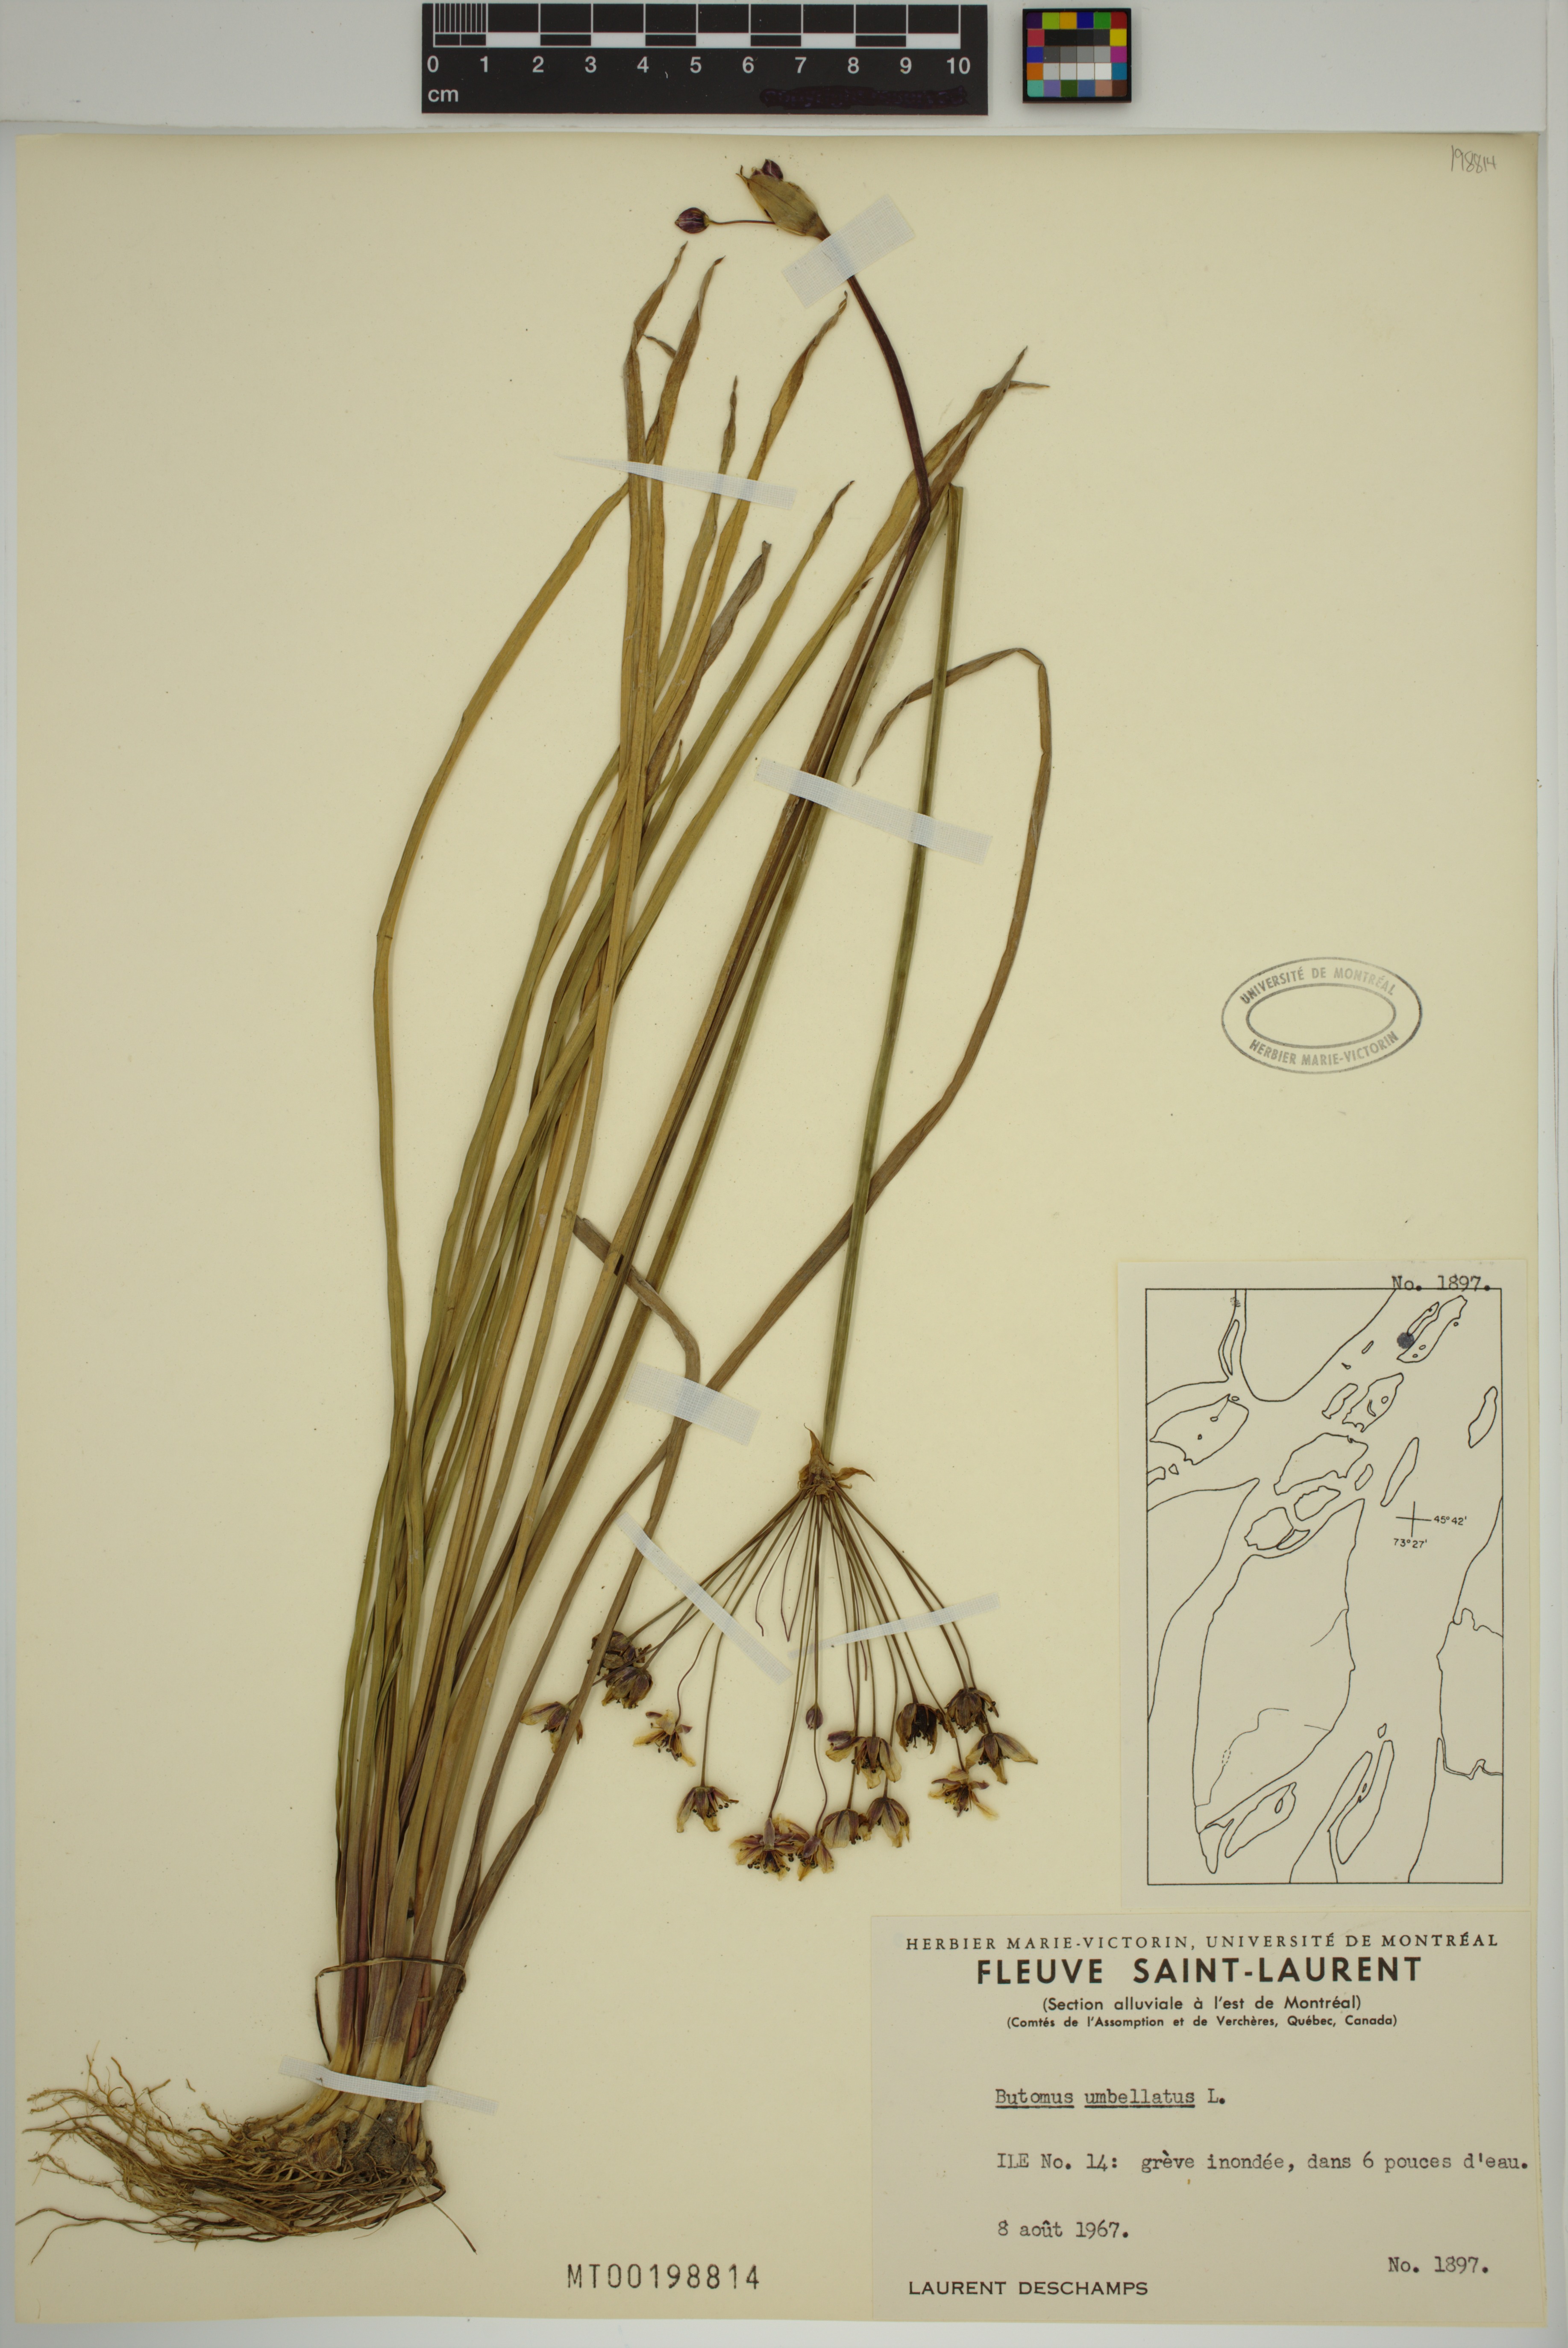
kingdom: Plantae
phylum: Tracheophyta
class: Liliopsida
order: Alismatales
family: Butomaceae
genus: Butomus
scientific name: Butomus umbellatus
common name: Flowering-rush
